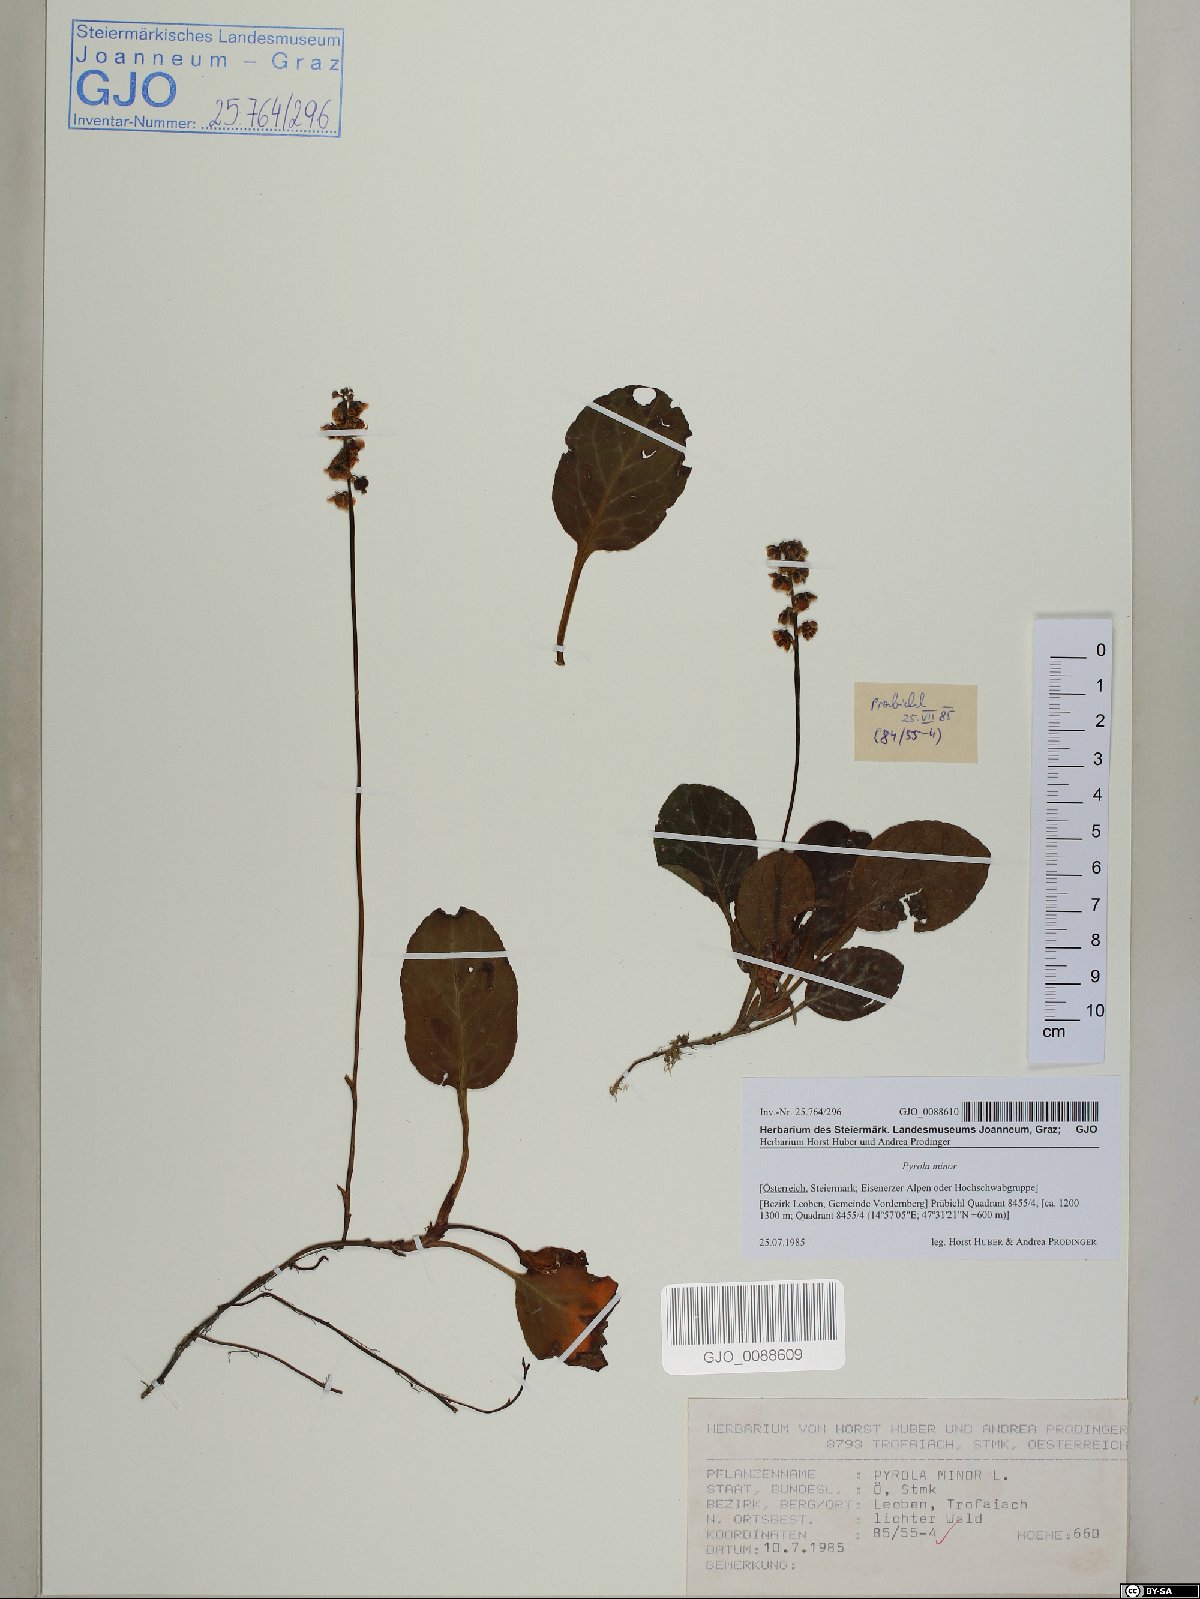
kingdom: Plantae
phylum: Tracheophyta
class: Magnoliopsida
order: Ericales
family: Ericaceae
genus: Pyrola
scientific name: Pyrola minor
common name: Common wintergreen
